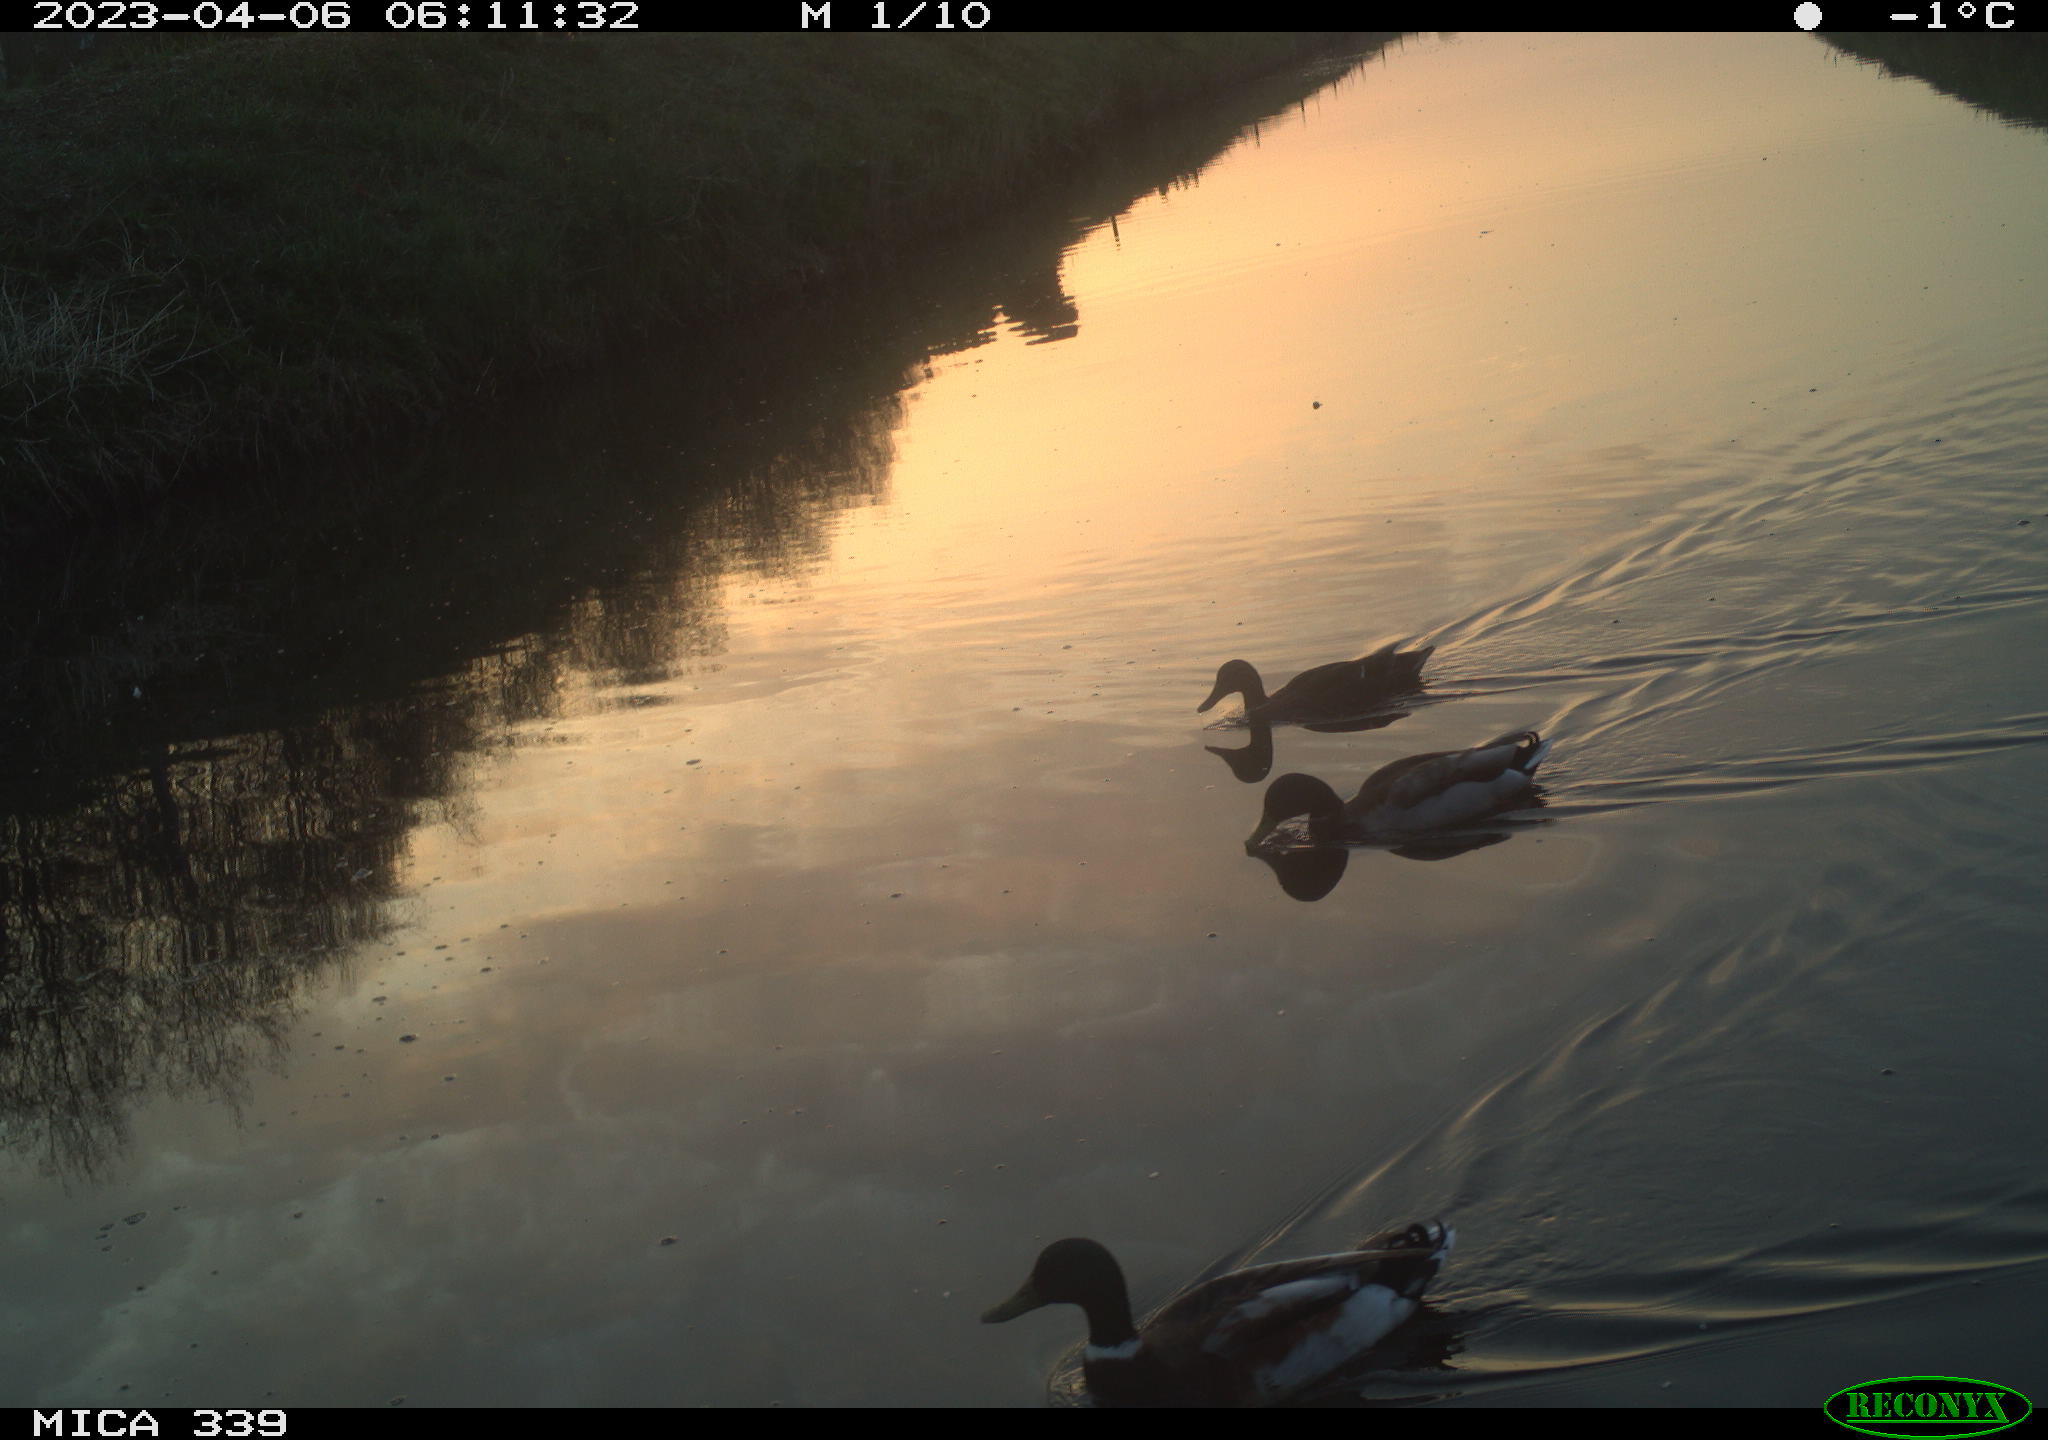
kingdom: Animalia
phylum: Chordata
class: Aves
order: Anseriformes
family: Anatidae
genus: Anas
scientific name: Anas
